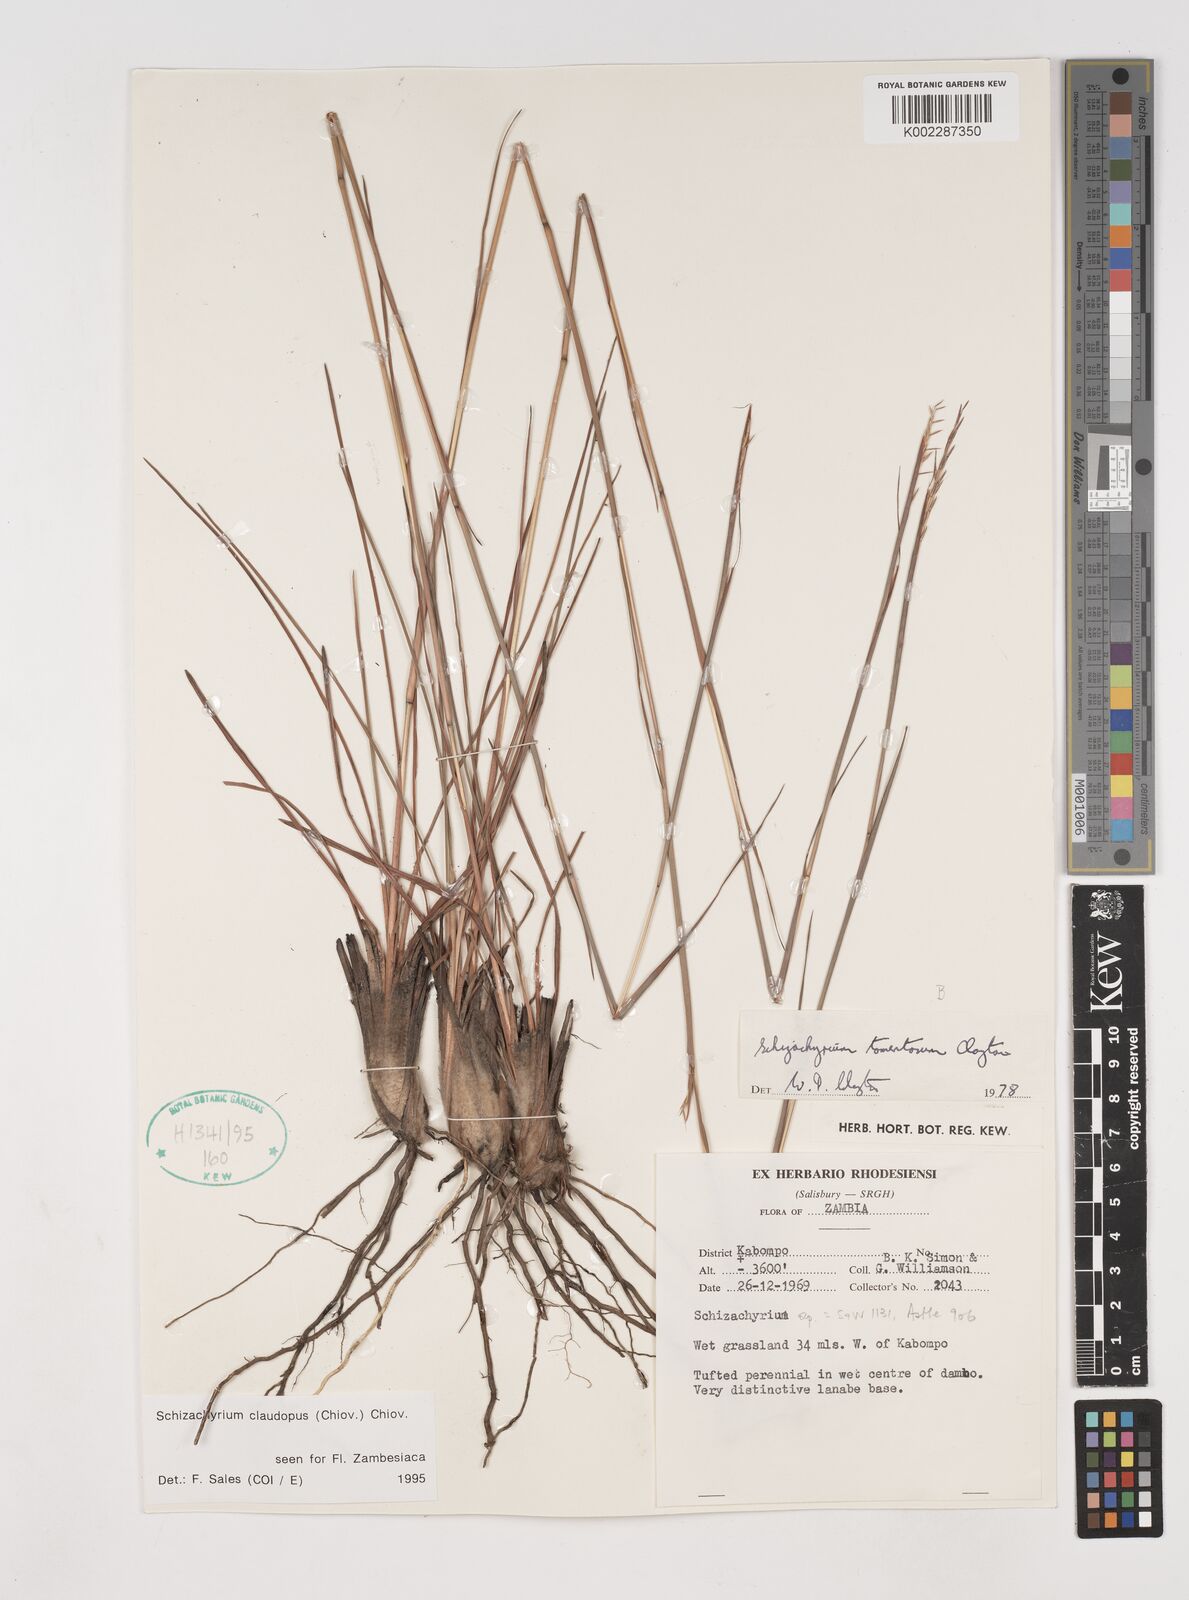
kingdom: Plantae
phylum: Tracheophyta
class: Liliopsida
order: Poales
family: Poaceae
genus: Schizachyrium
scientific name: Schizachyrium claudopus
